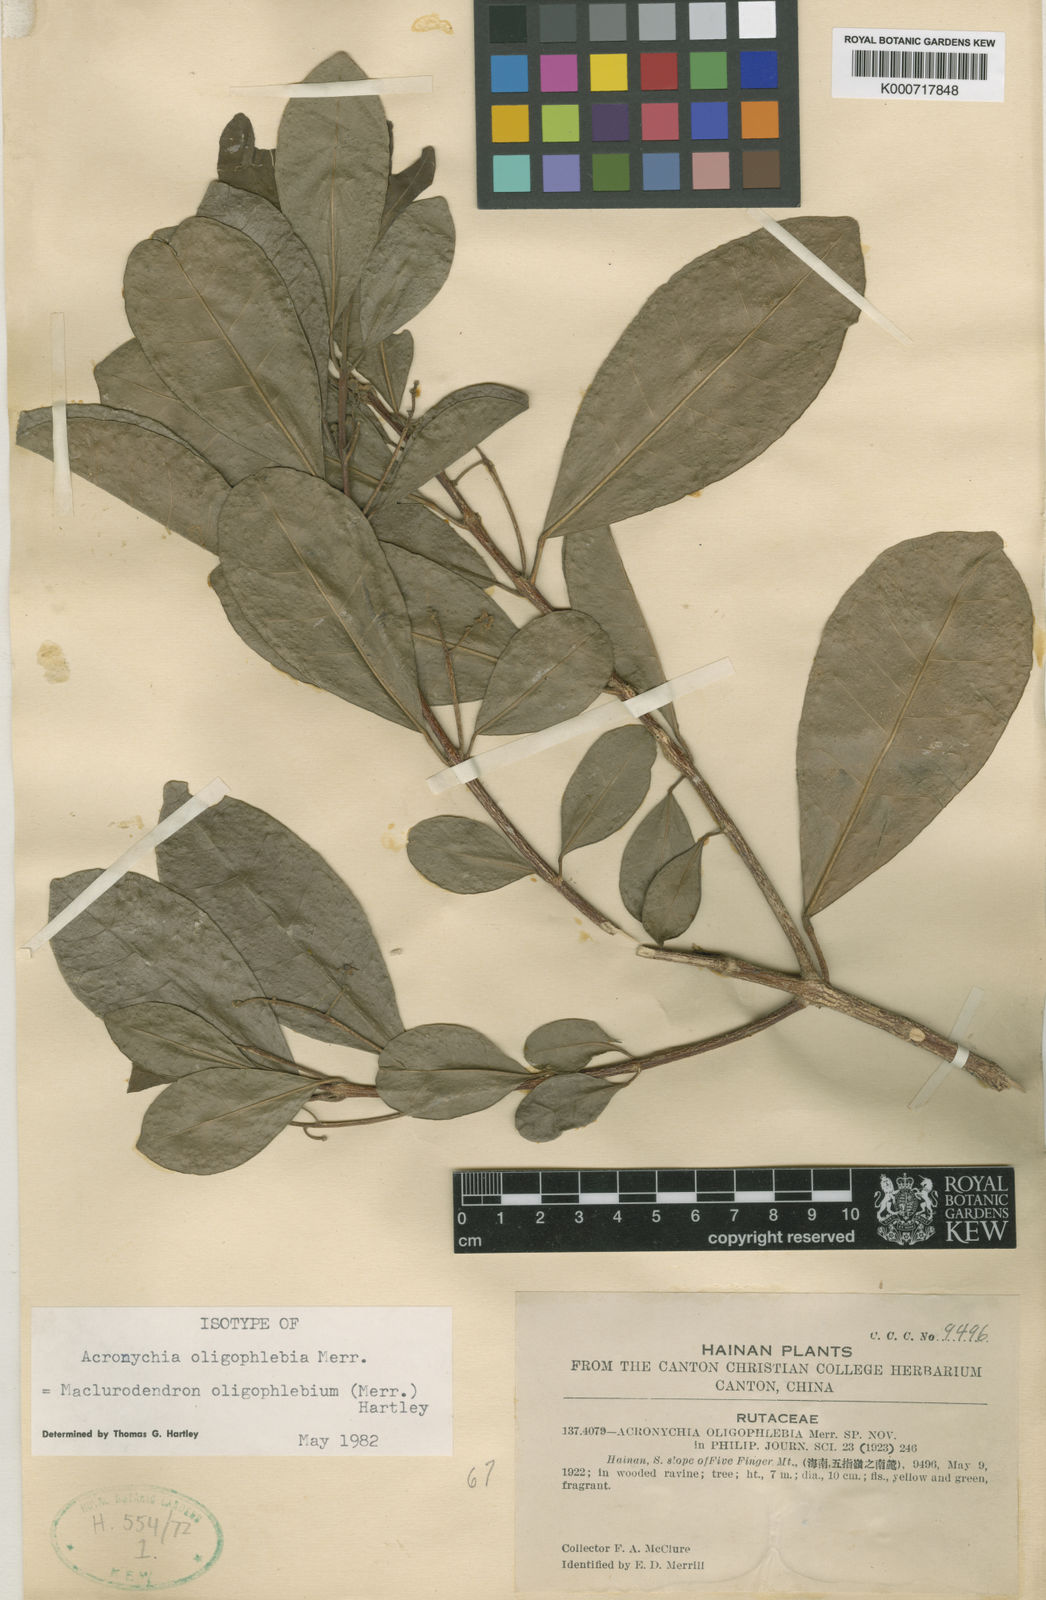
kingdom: Plantae
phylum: Tracheophyta
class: Magnoliopsida
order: Sapindales
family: Rutaceae
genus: Maclurodendron
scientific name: Maclurodendron oligophlebium
